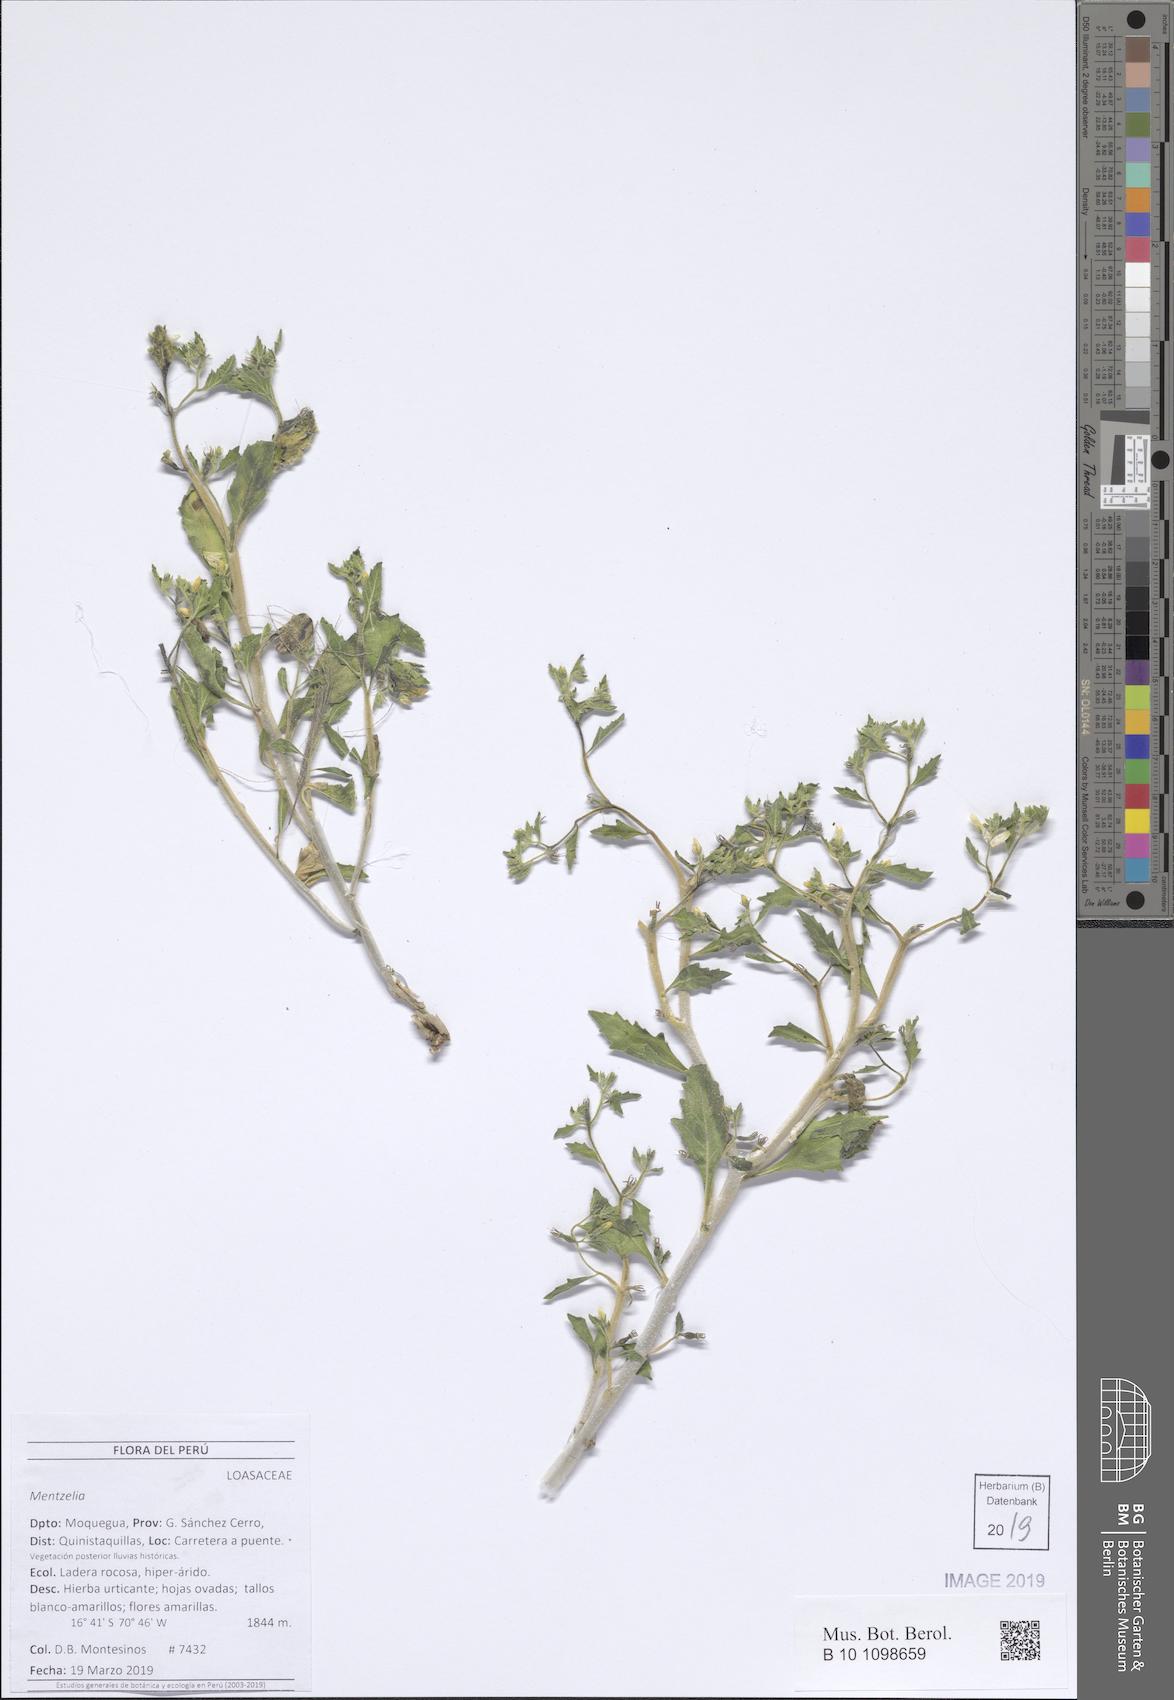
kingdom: Plantae
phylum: Tracheophyta
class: Magnoliopsida
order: Cornales
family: Loasaceae
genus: Mentzelia
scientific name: Mentzelia
